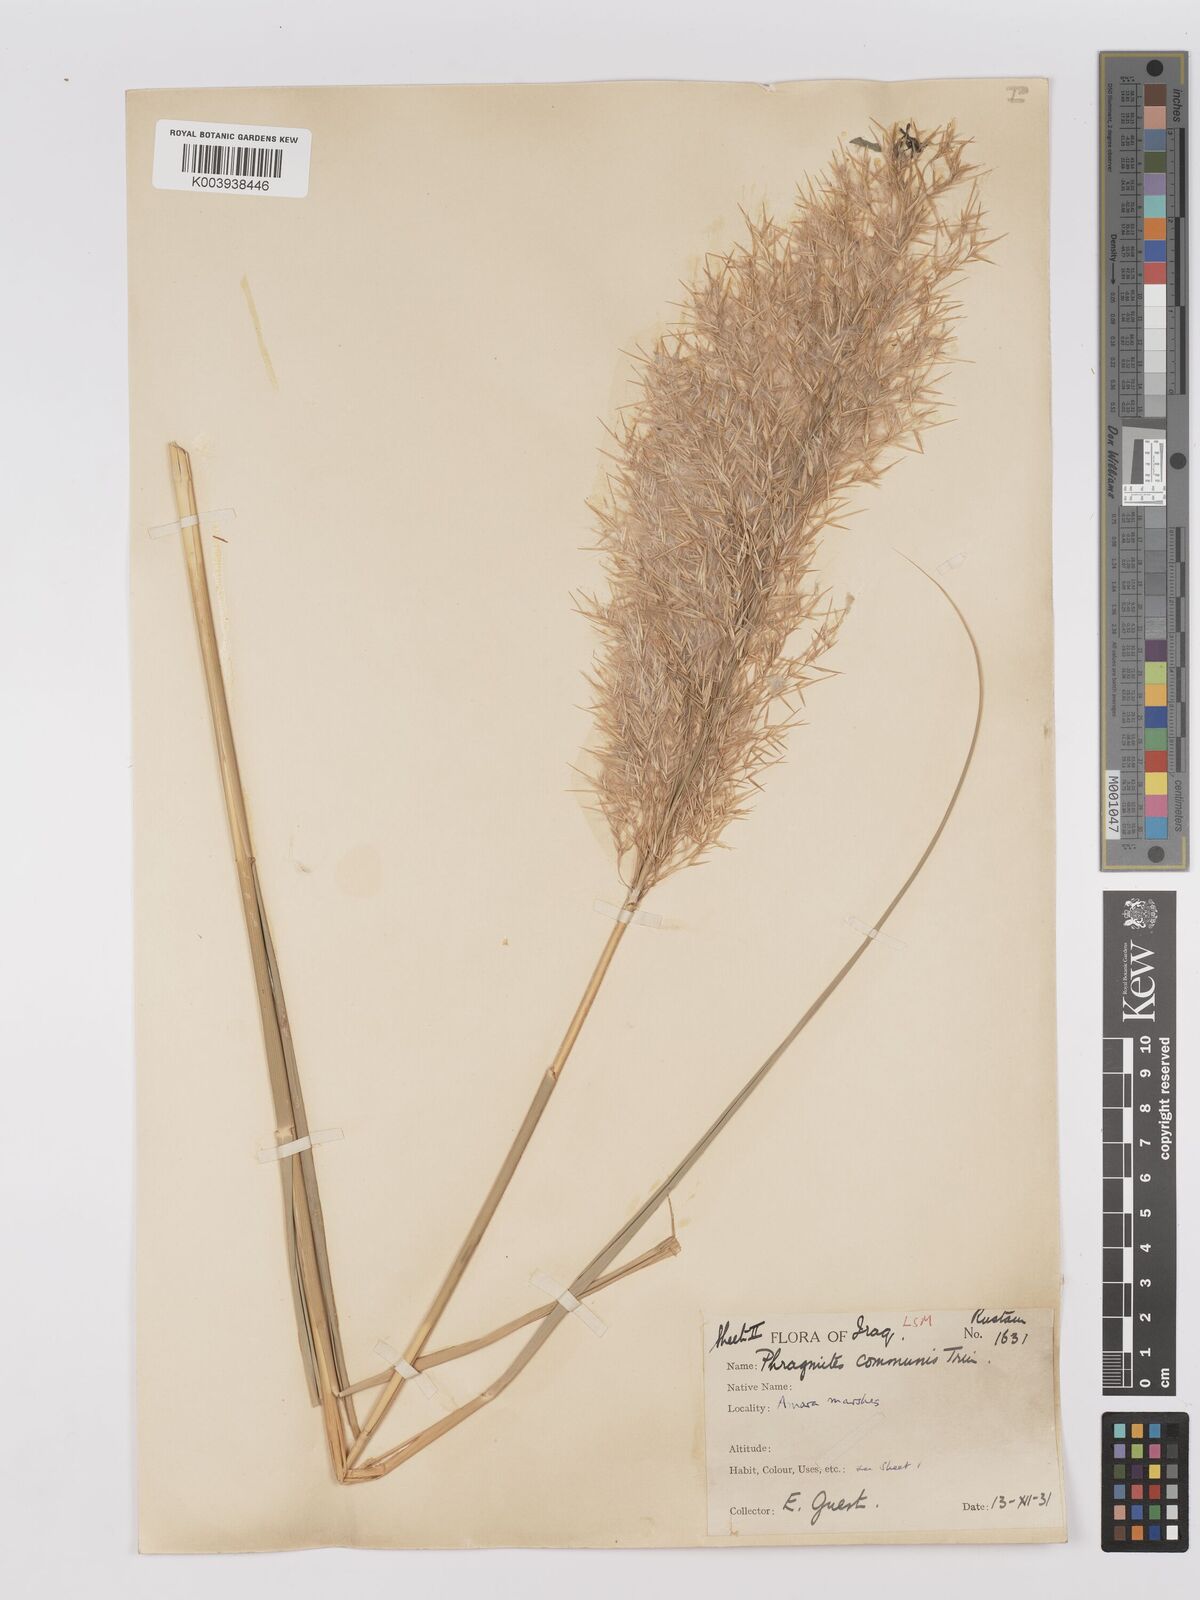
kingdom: Plantae
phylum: Tracheophyta
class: Liliopsida
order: Poales
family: Poaceae
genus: Phragmites
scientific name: Phragmites australis
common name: Common reed
